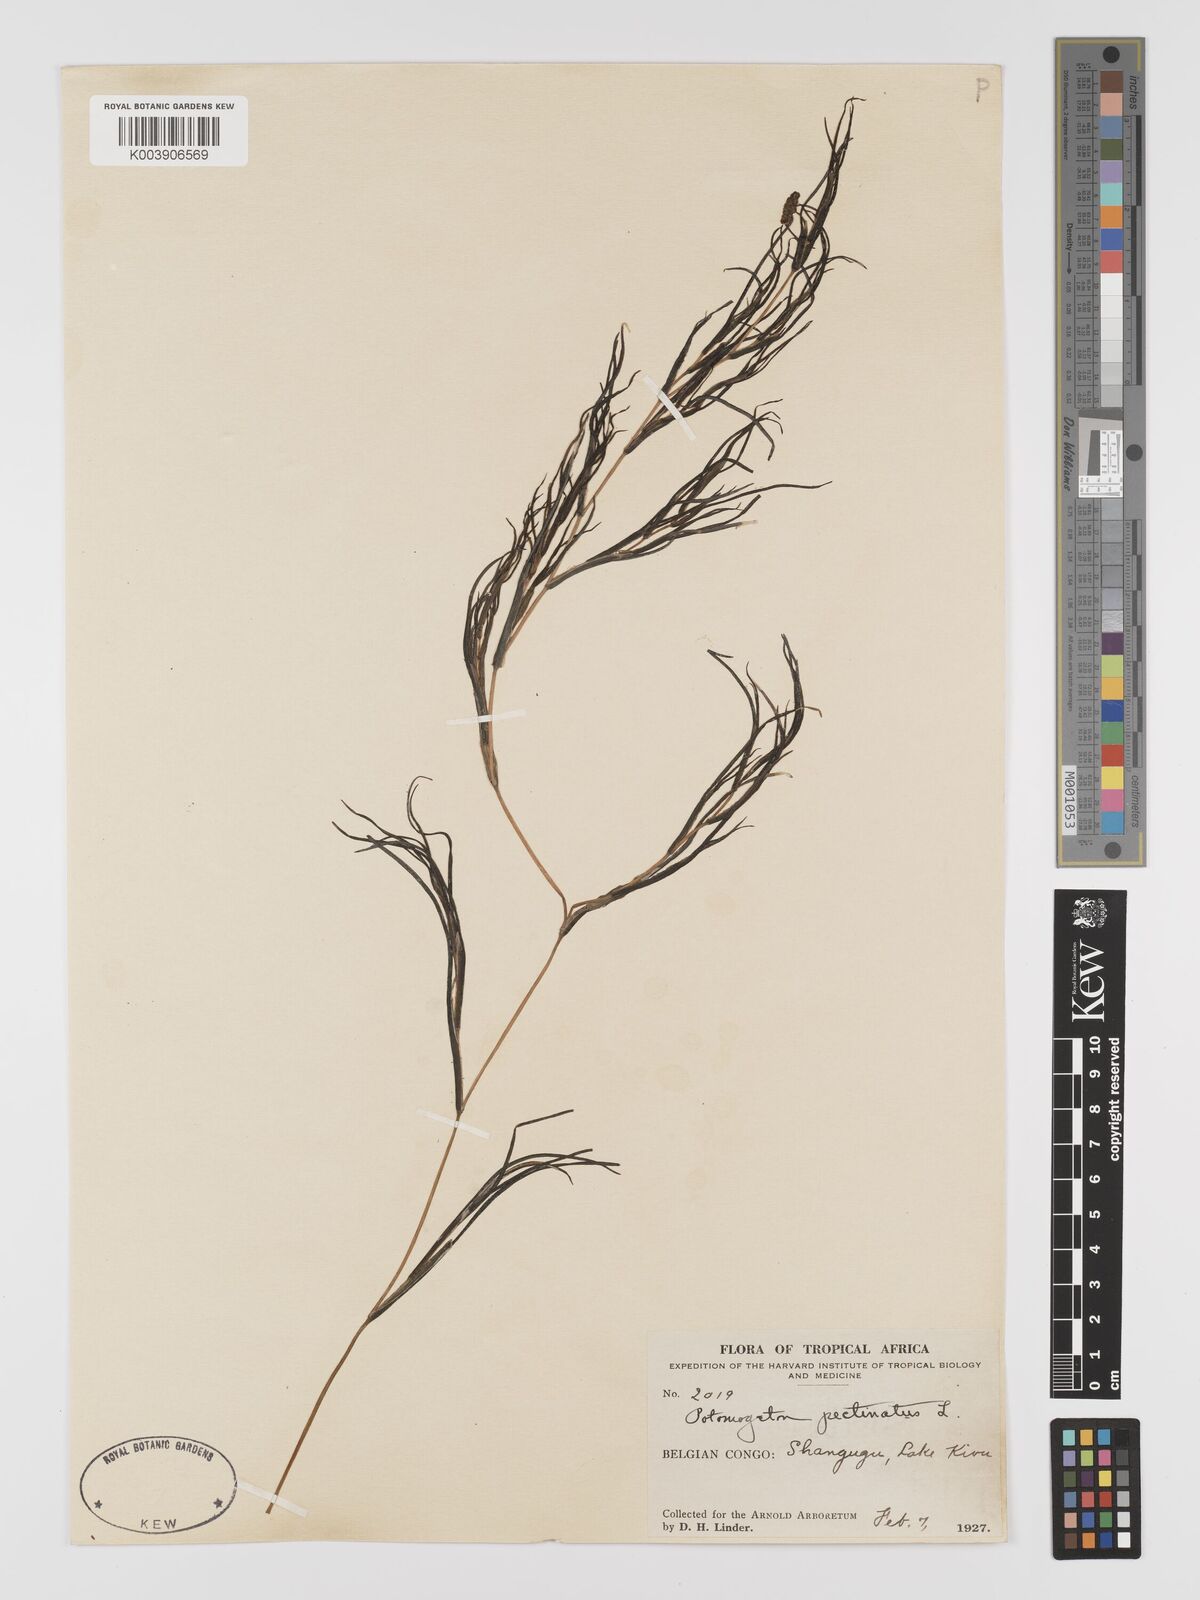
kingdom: Plantae
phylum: Tracheophyta
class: Liliopsida
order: Alismatales
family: Potamogetonaceae
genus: Stuckenia
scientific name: Stuckenia pectinata
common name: Sago pondweed
